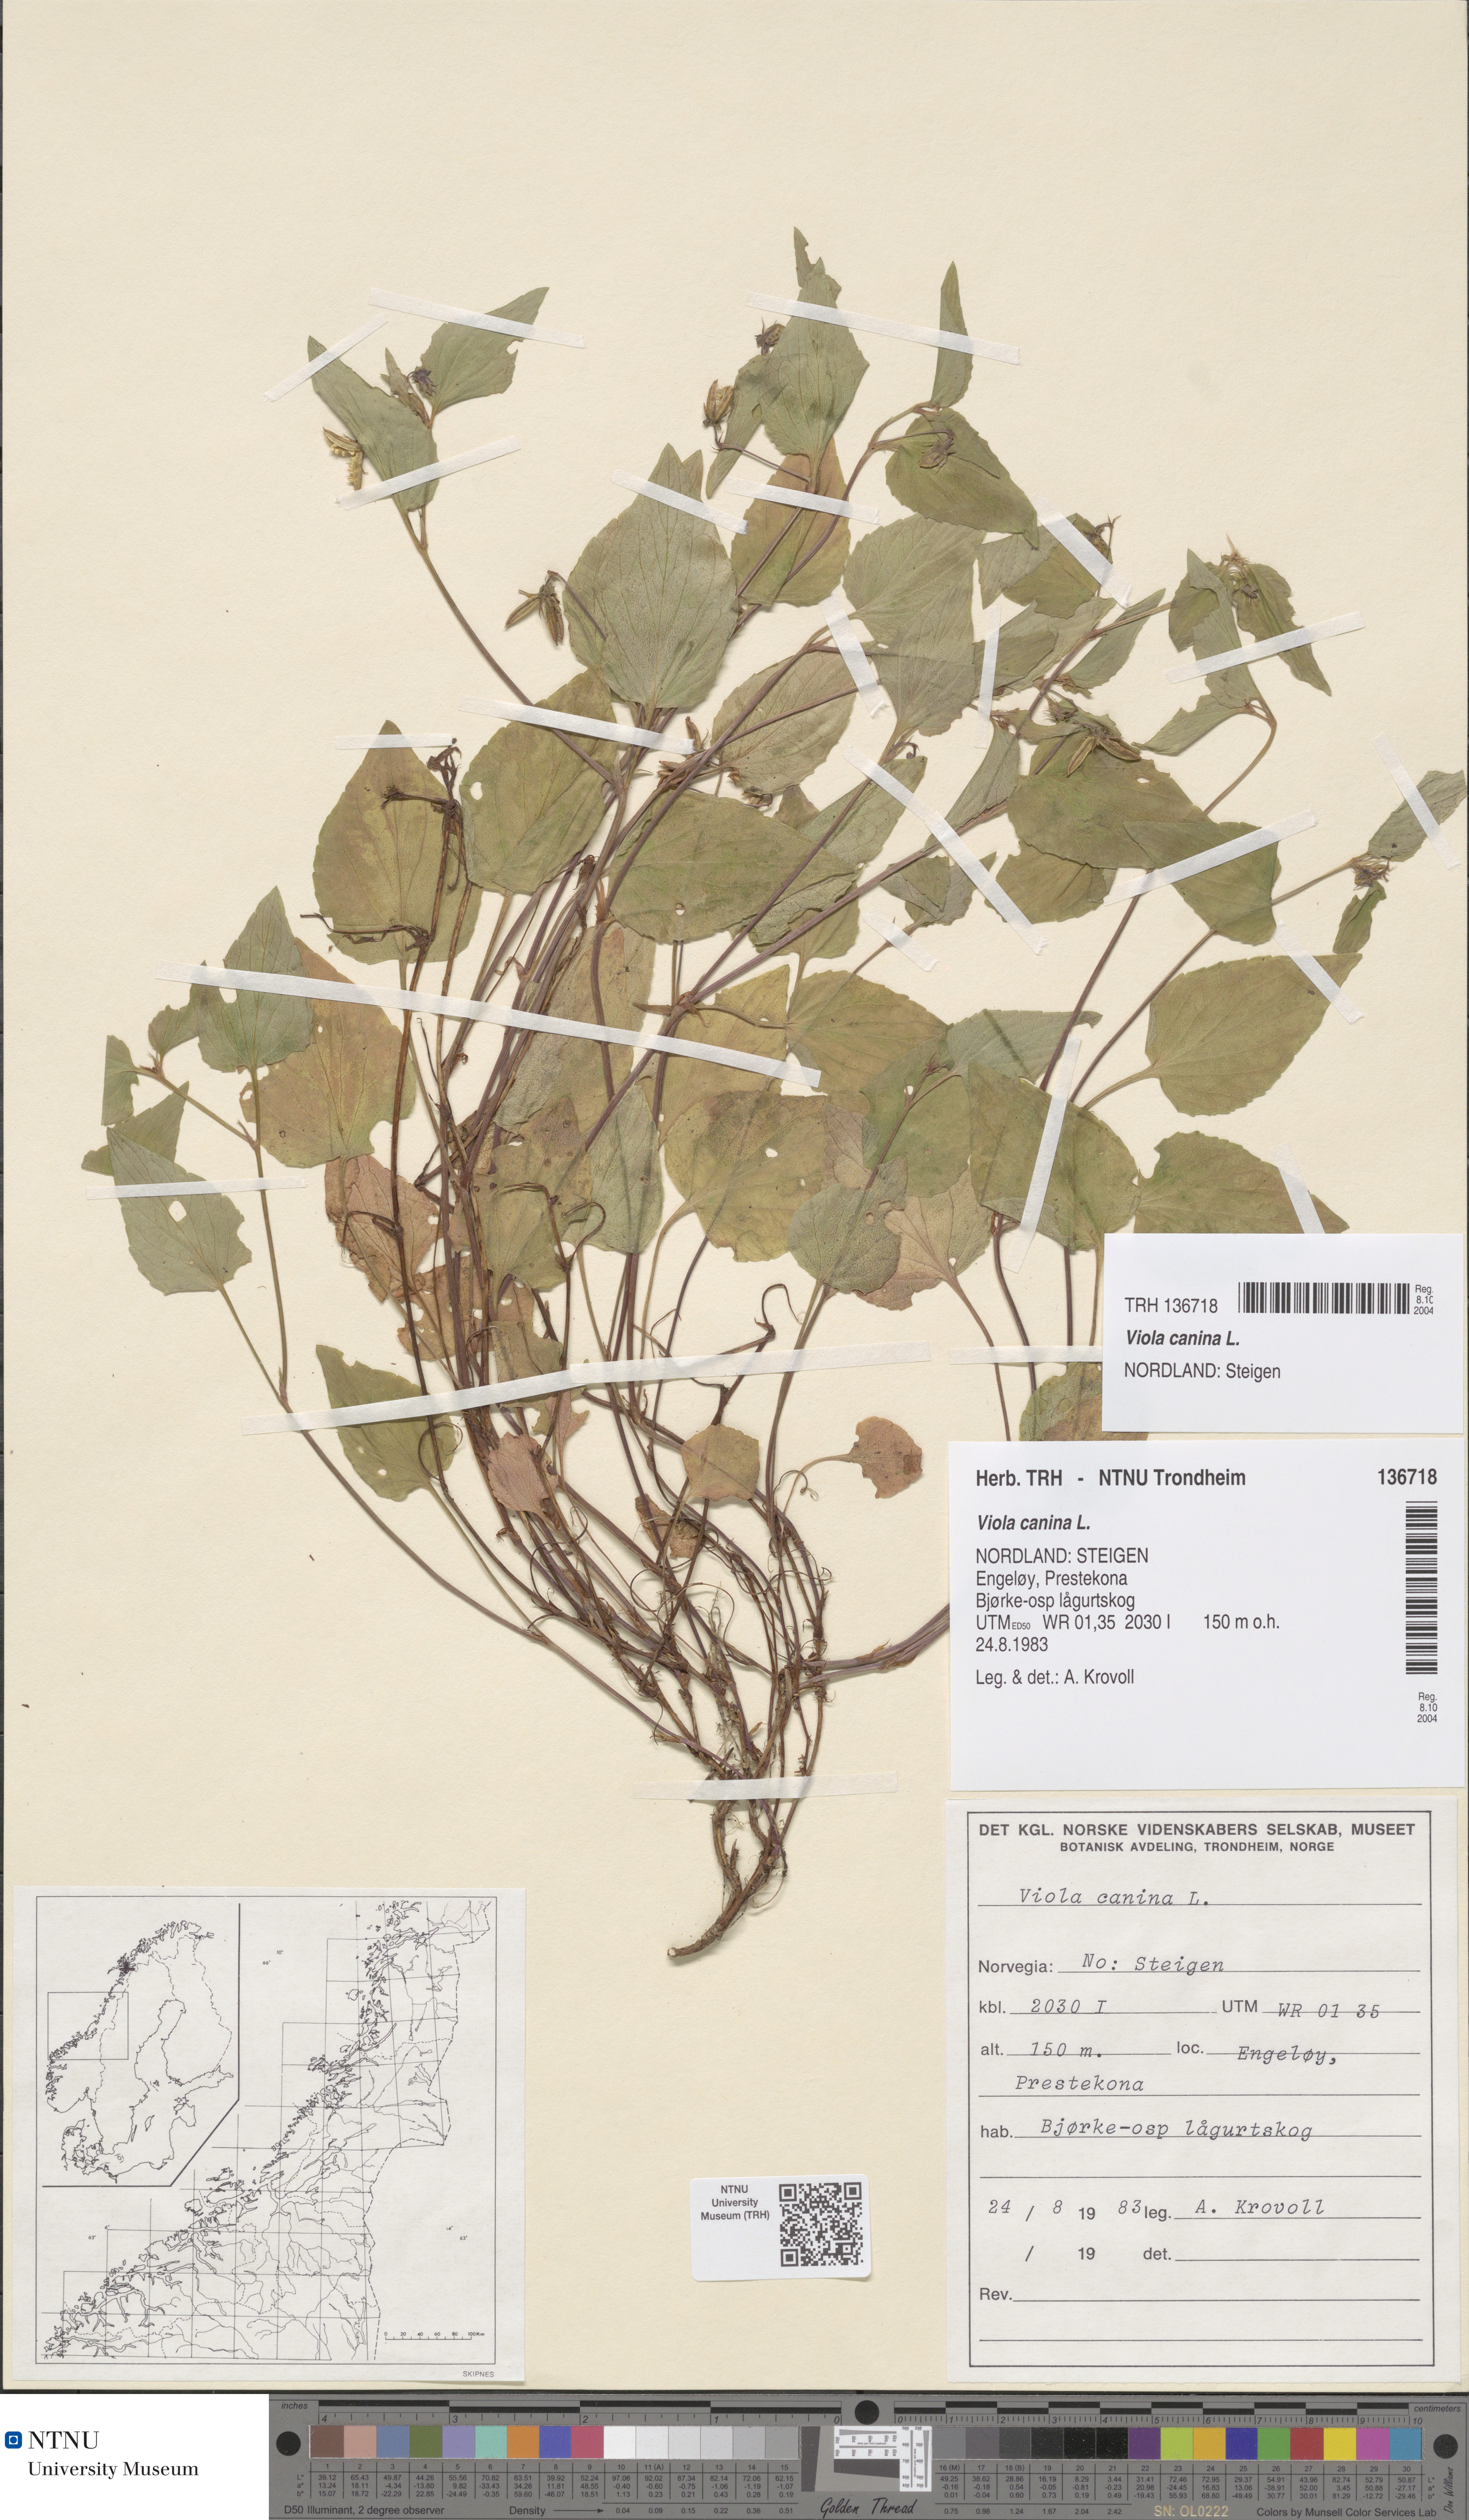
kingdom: Plantae
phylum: Tracheophyta
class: Magnoliopsida
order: Malpighiales
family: Violaceae
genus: Viola
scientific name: Viola canina
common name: Heath dog-violet
